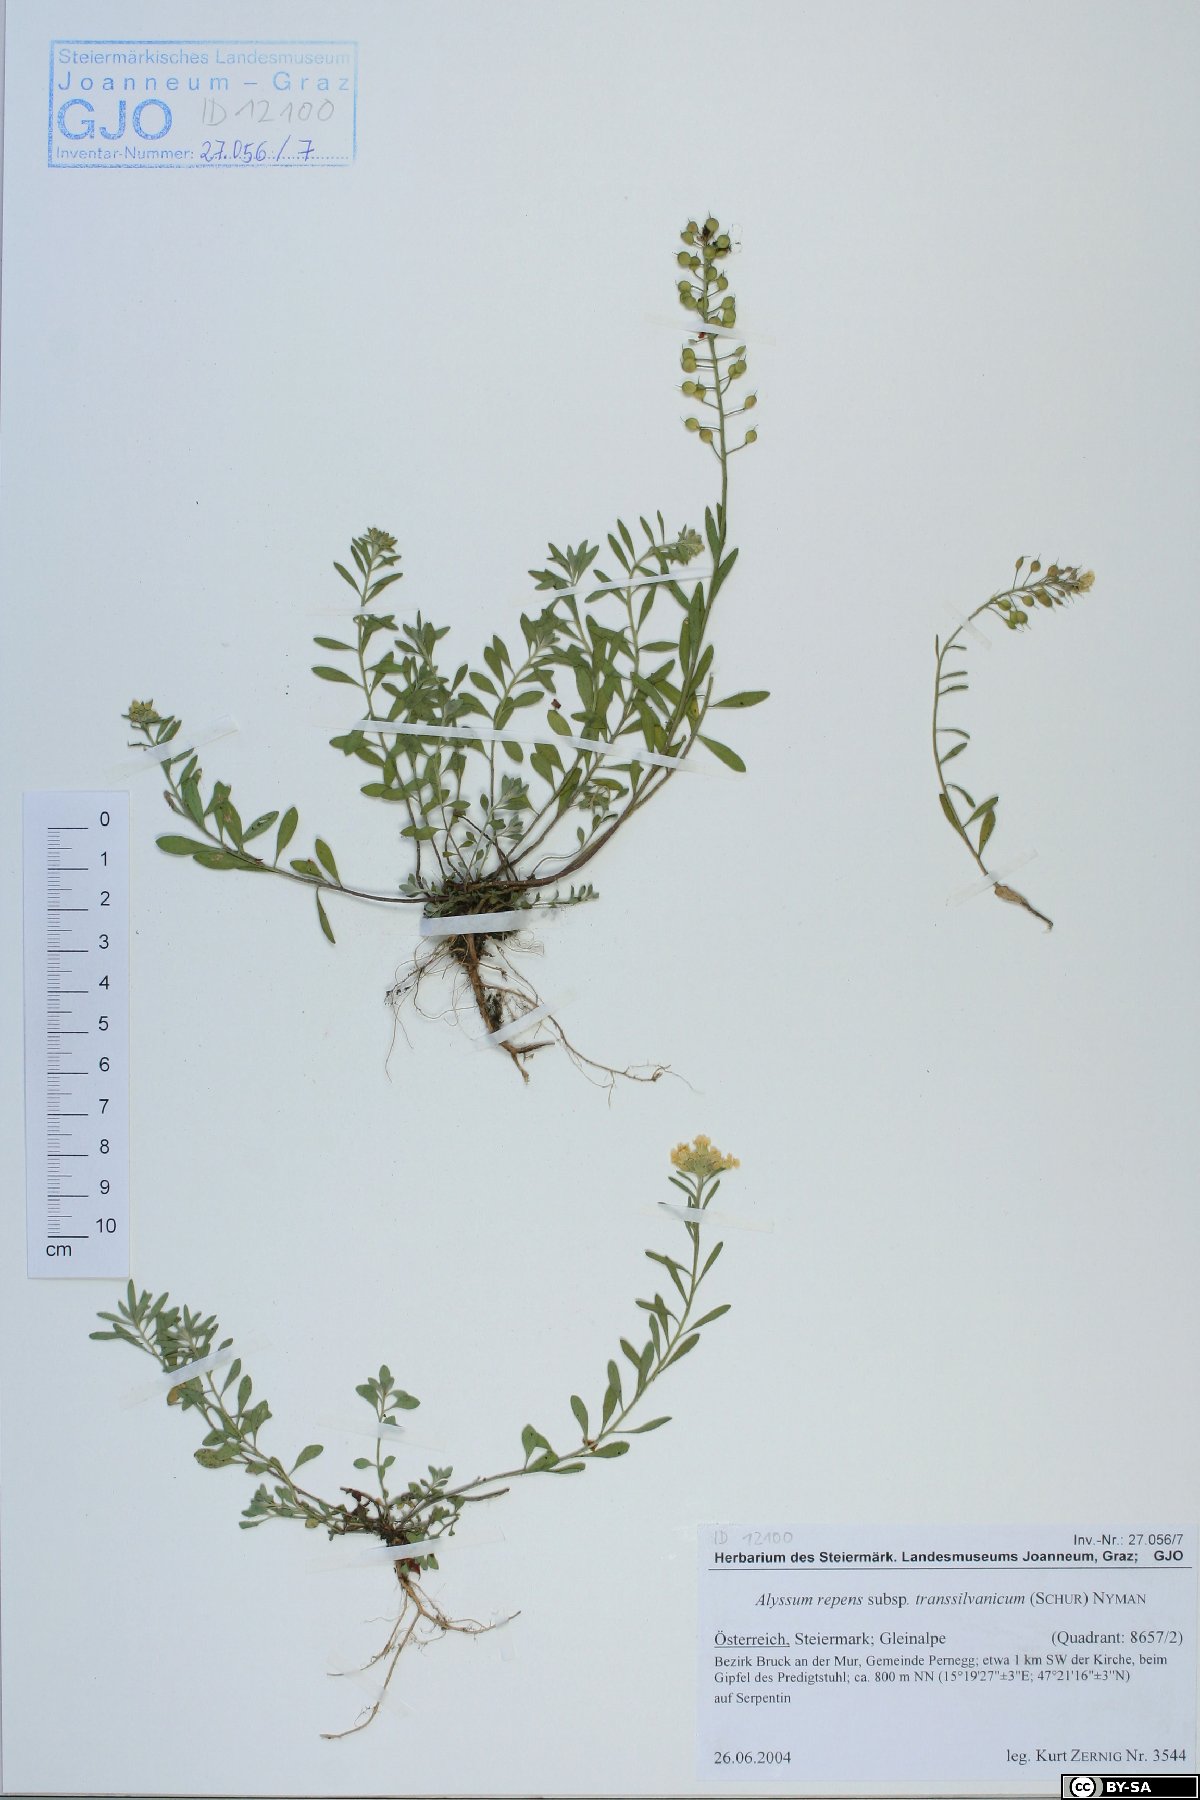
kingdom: Plantae
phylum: Tracheophyta
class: Magnoliopsida
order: Brassicales
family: Brassicaceae
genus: Alyssum
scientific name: Alyssum repens
